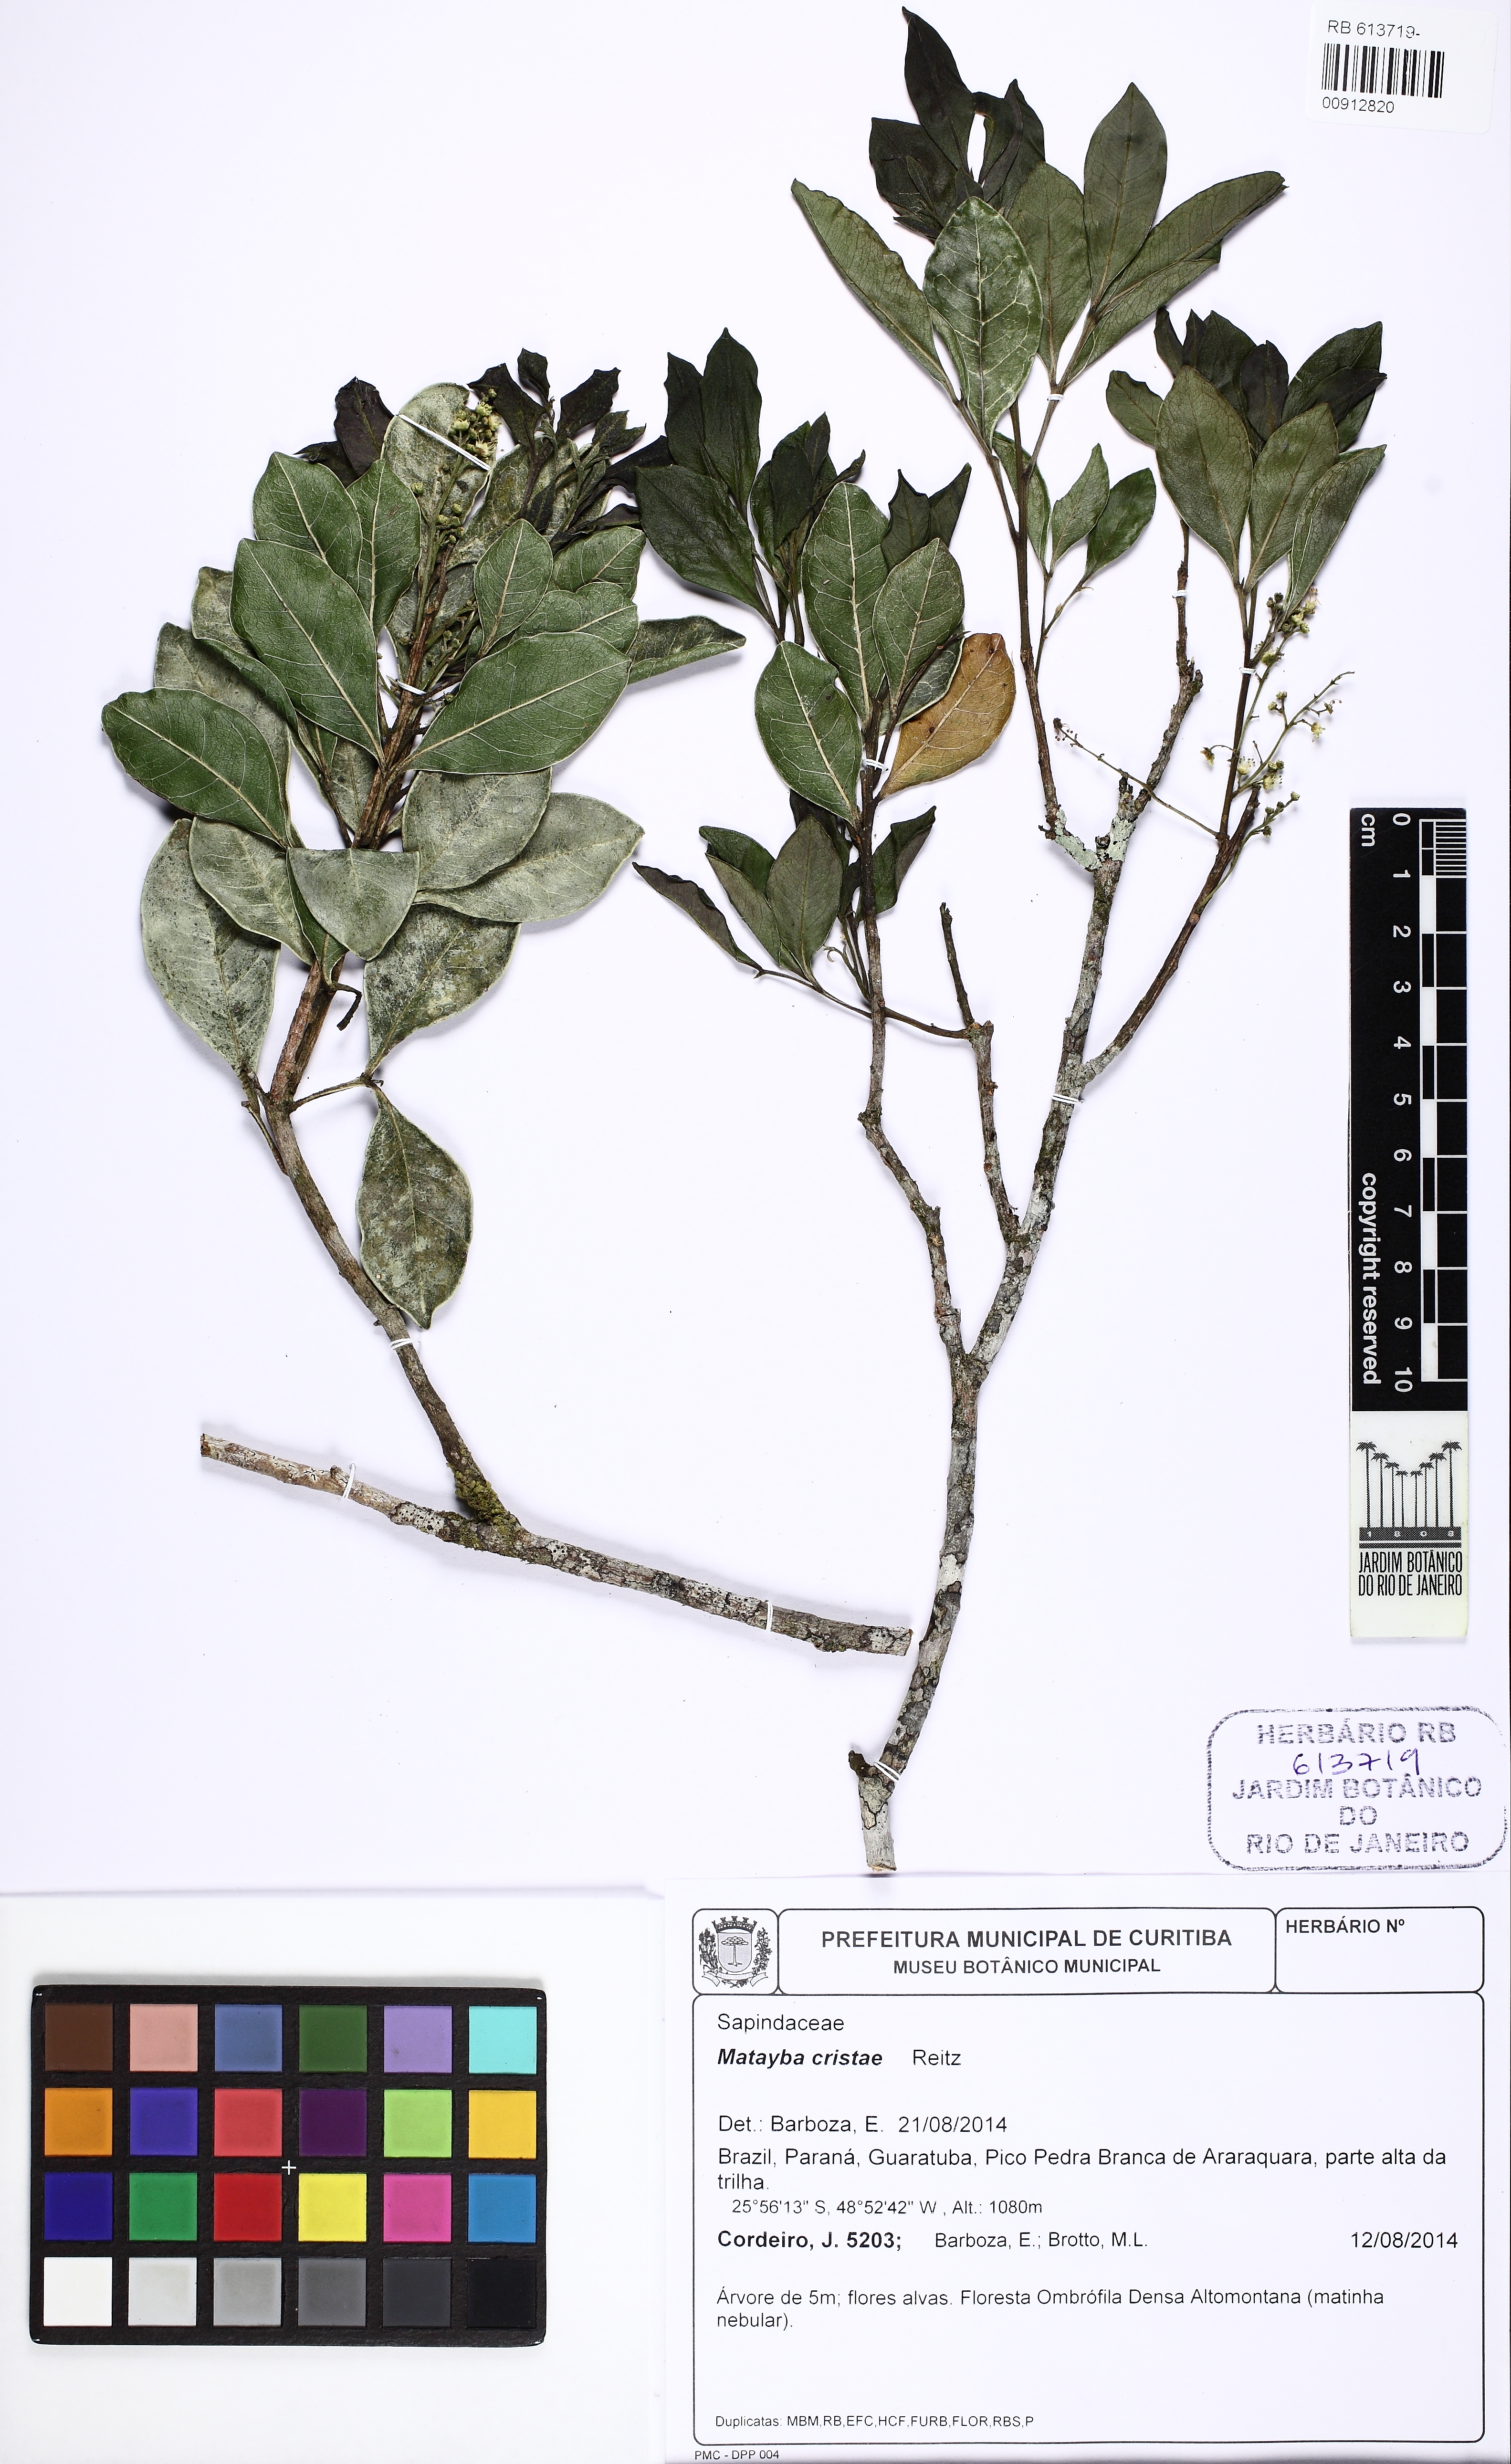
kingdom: Plantae
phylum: Tracheophyta
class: Magnoliopsida
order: Sapindales
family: Sapindaceae
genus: Matayba
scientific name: Matayba cristae
